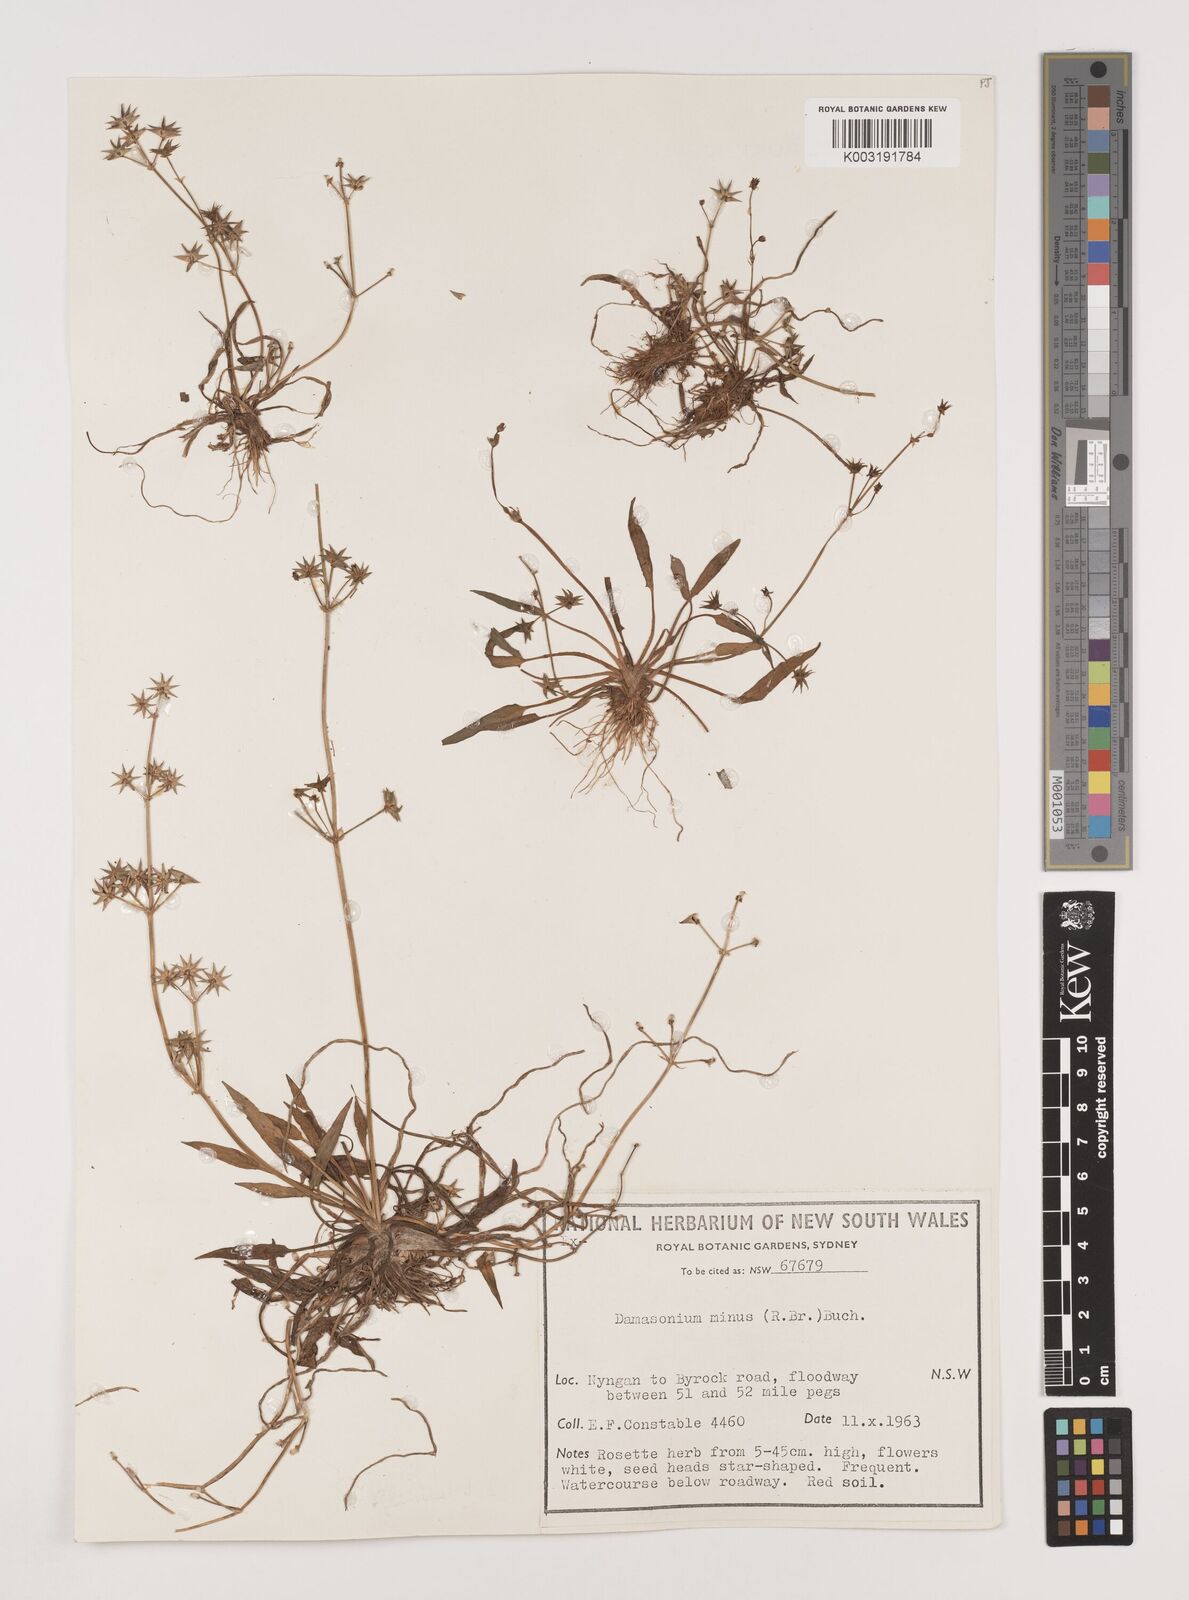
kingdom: Plantae
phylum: Tracheophyta
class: Liliopsida
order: Alismatales
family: Alismataceae
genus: Damasonium
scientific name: Damasonium minus
